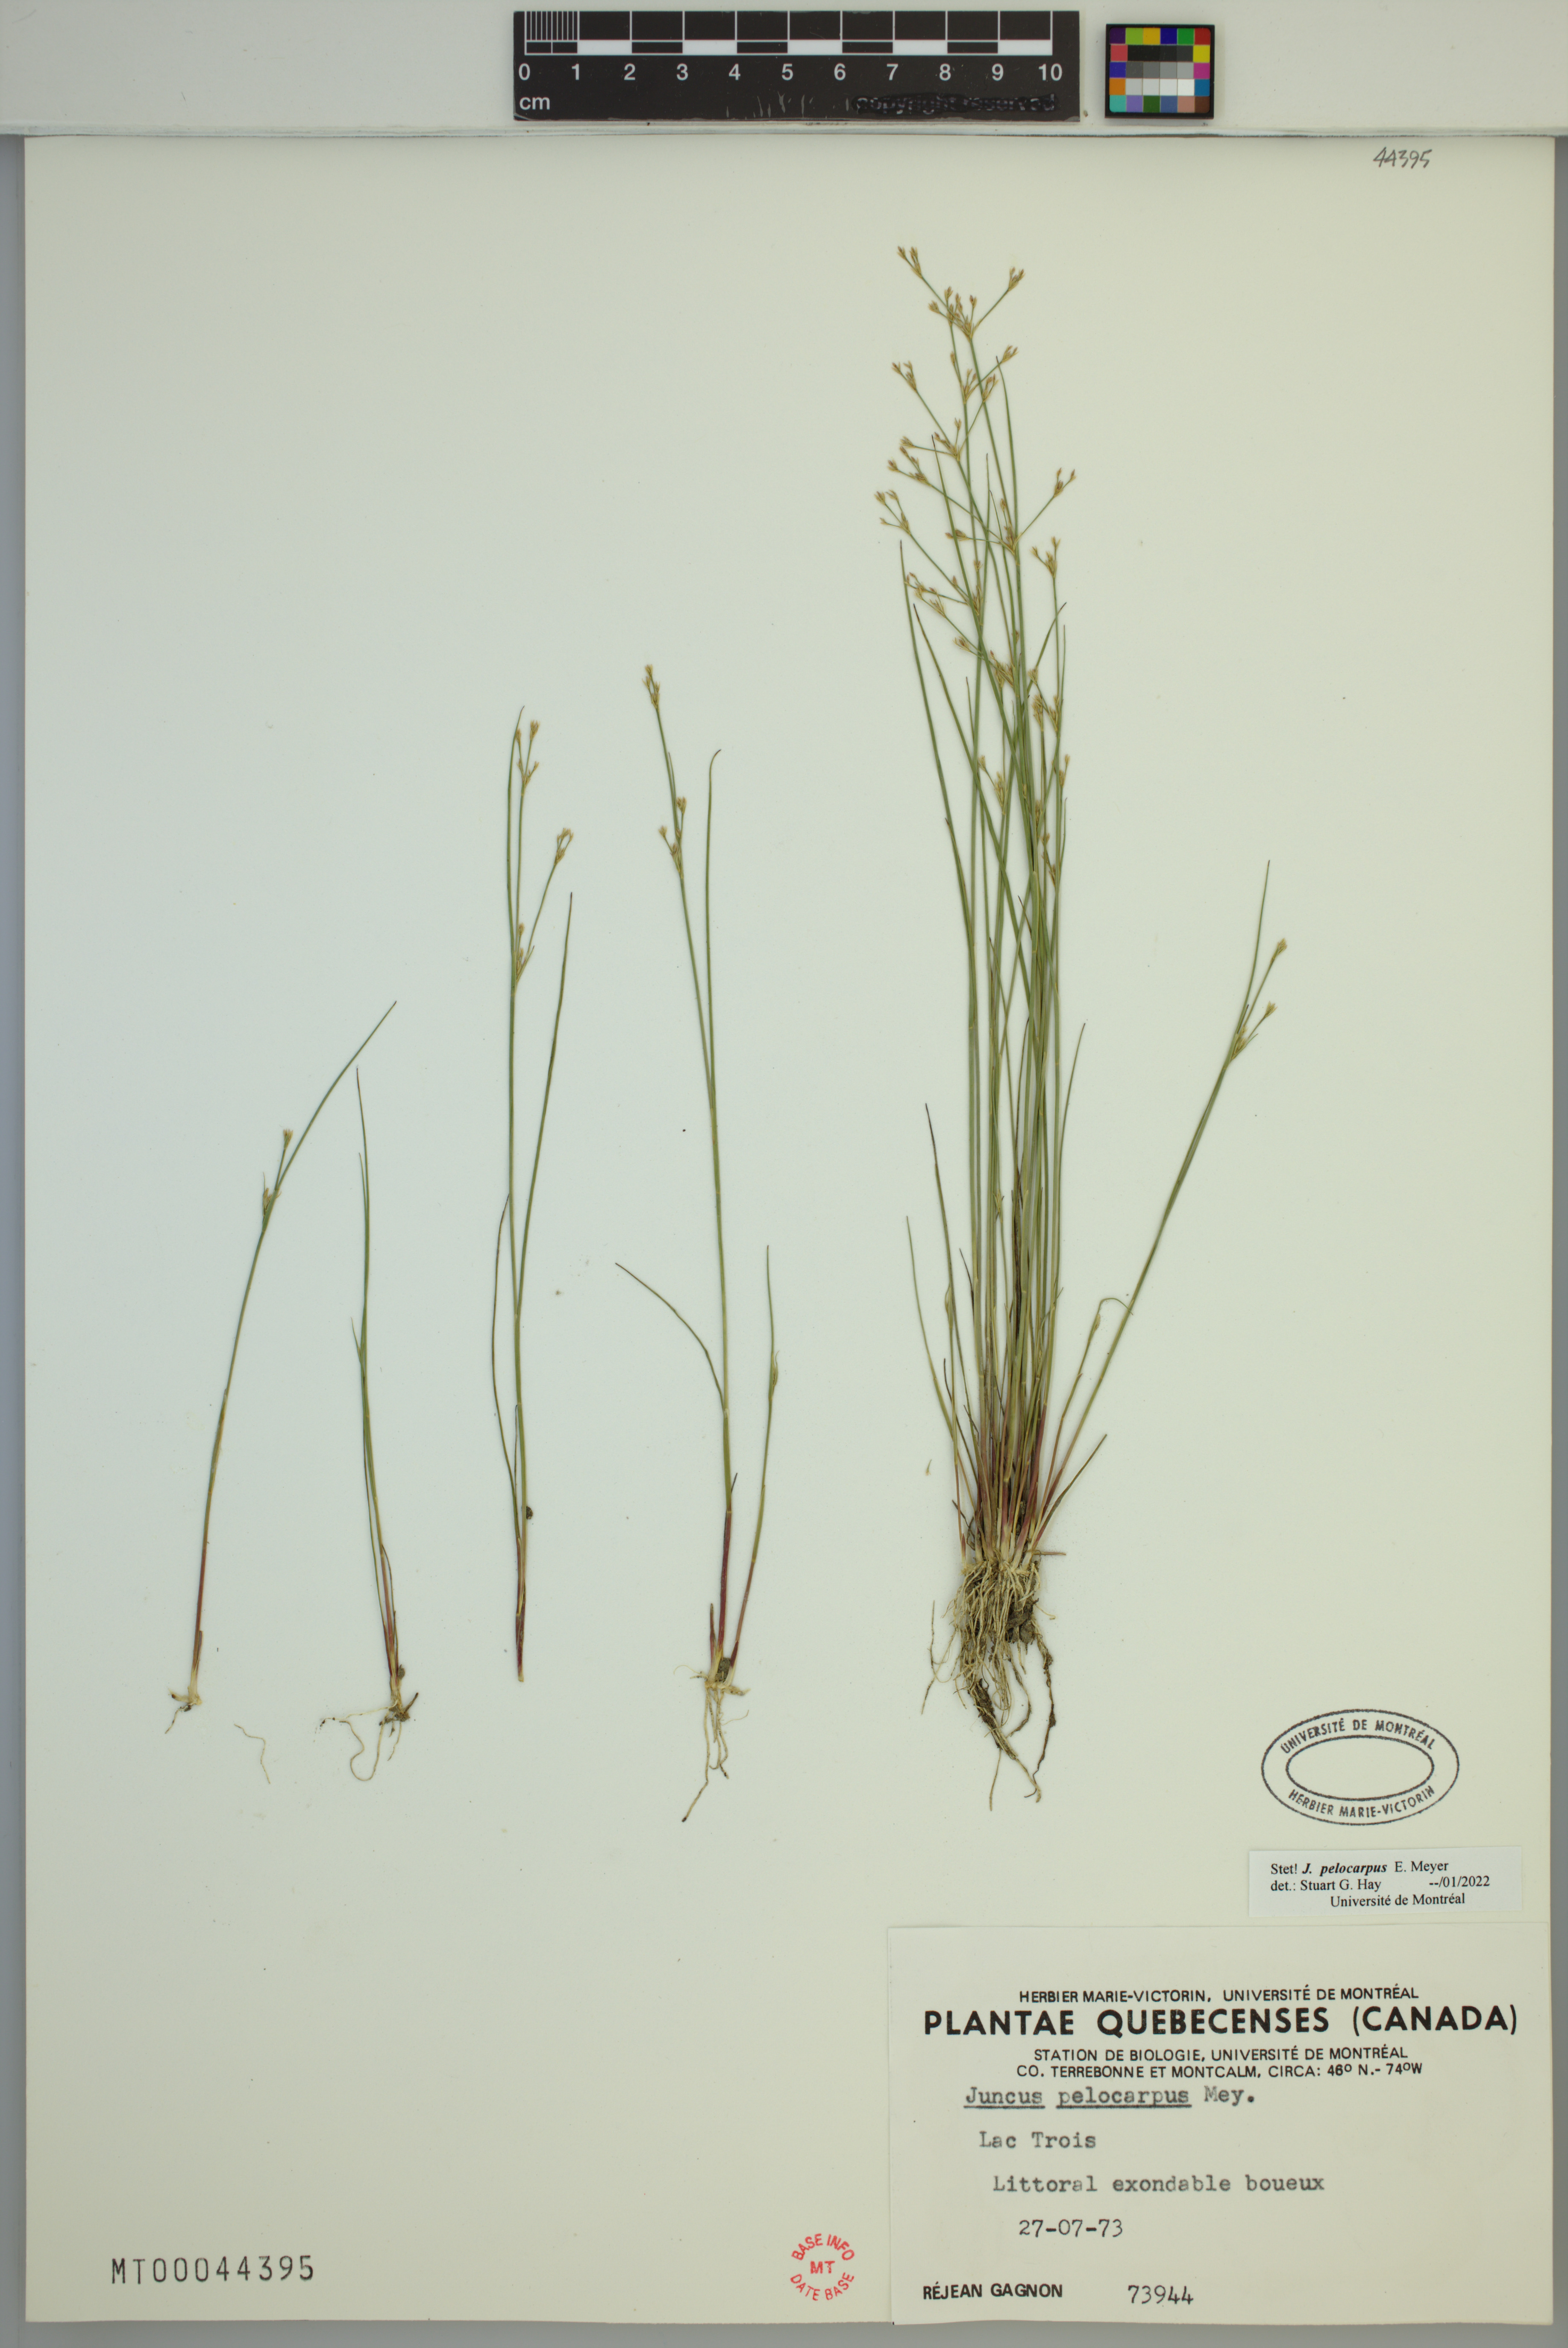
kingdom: Plantae
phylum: Tracheophyta
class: Liliopsida
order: Poales
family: Juncaceae
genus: Juncus
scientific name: Juncus pelocarpus
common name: Brown-fruited rush
